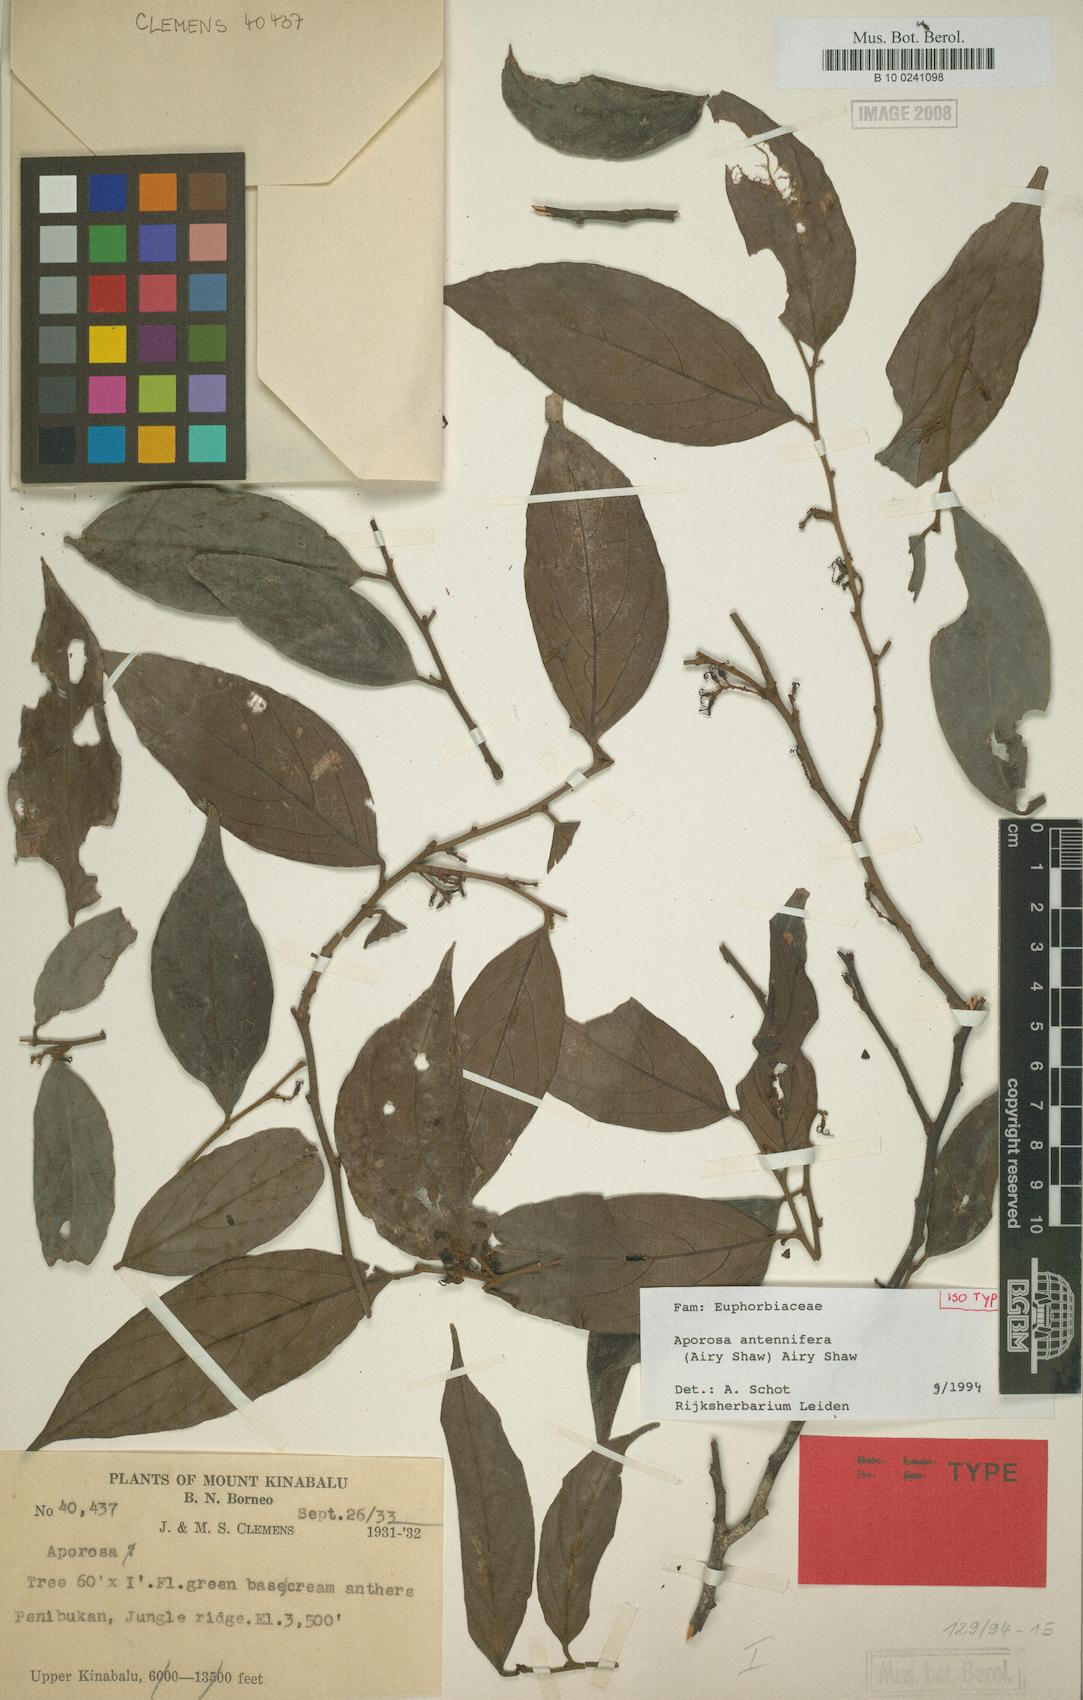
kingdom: Plantae
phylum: Tracheophyta
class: Magnoliopsida
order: Malpighiales
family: Phyllanthaceae
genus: Aporosa
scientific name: Aporosa antennifera
